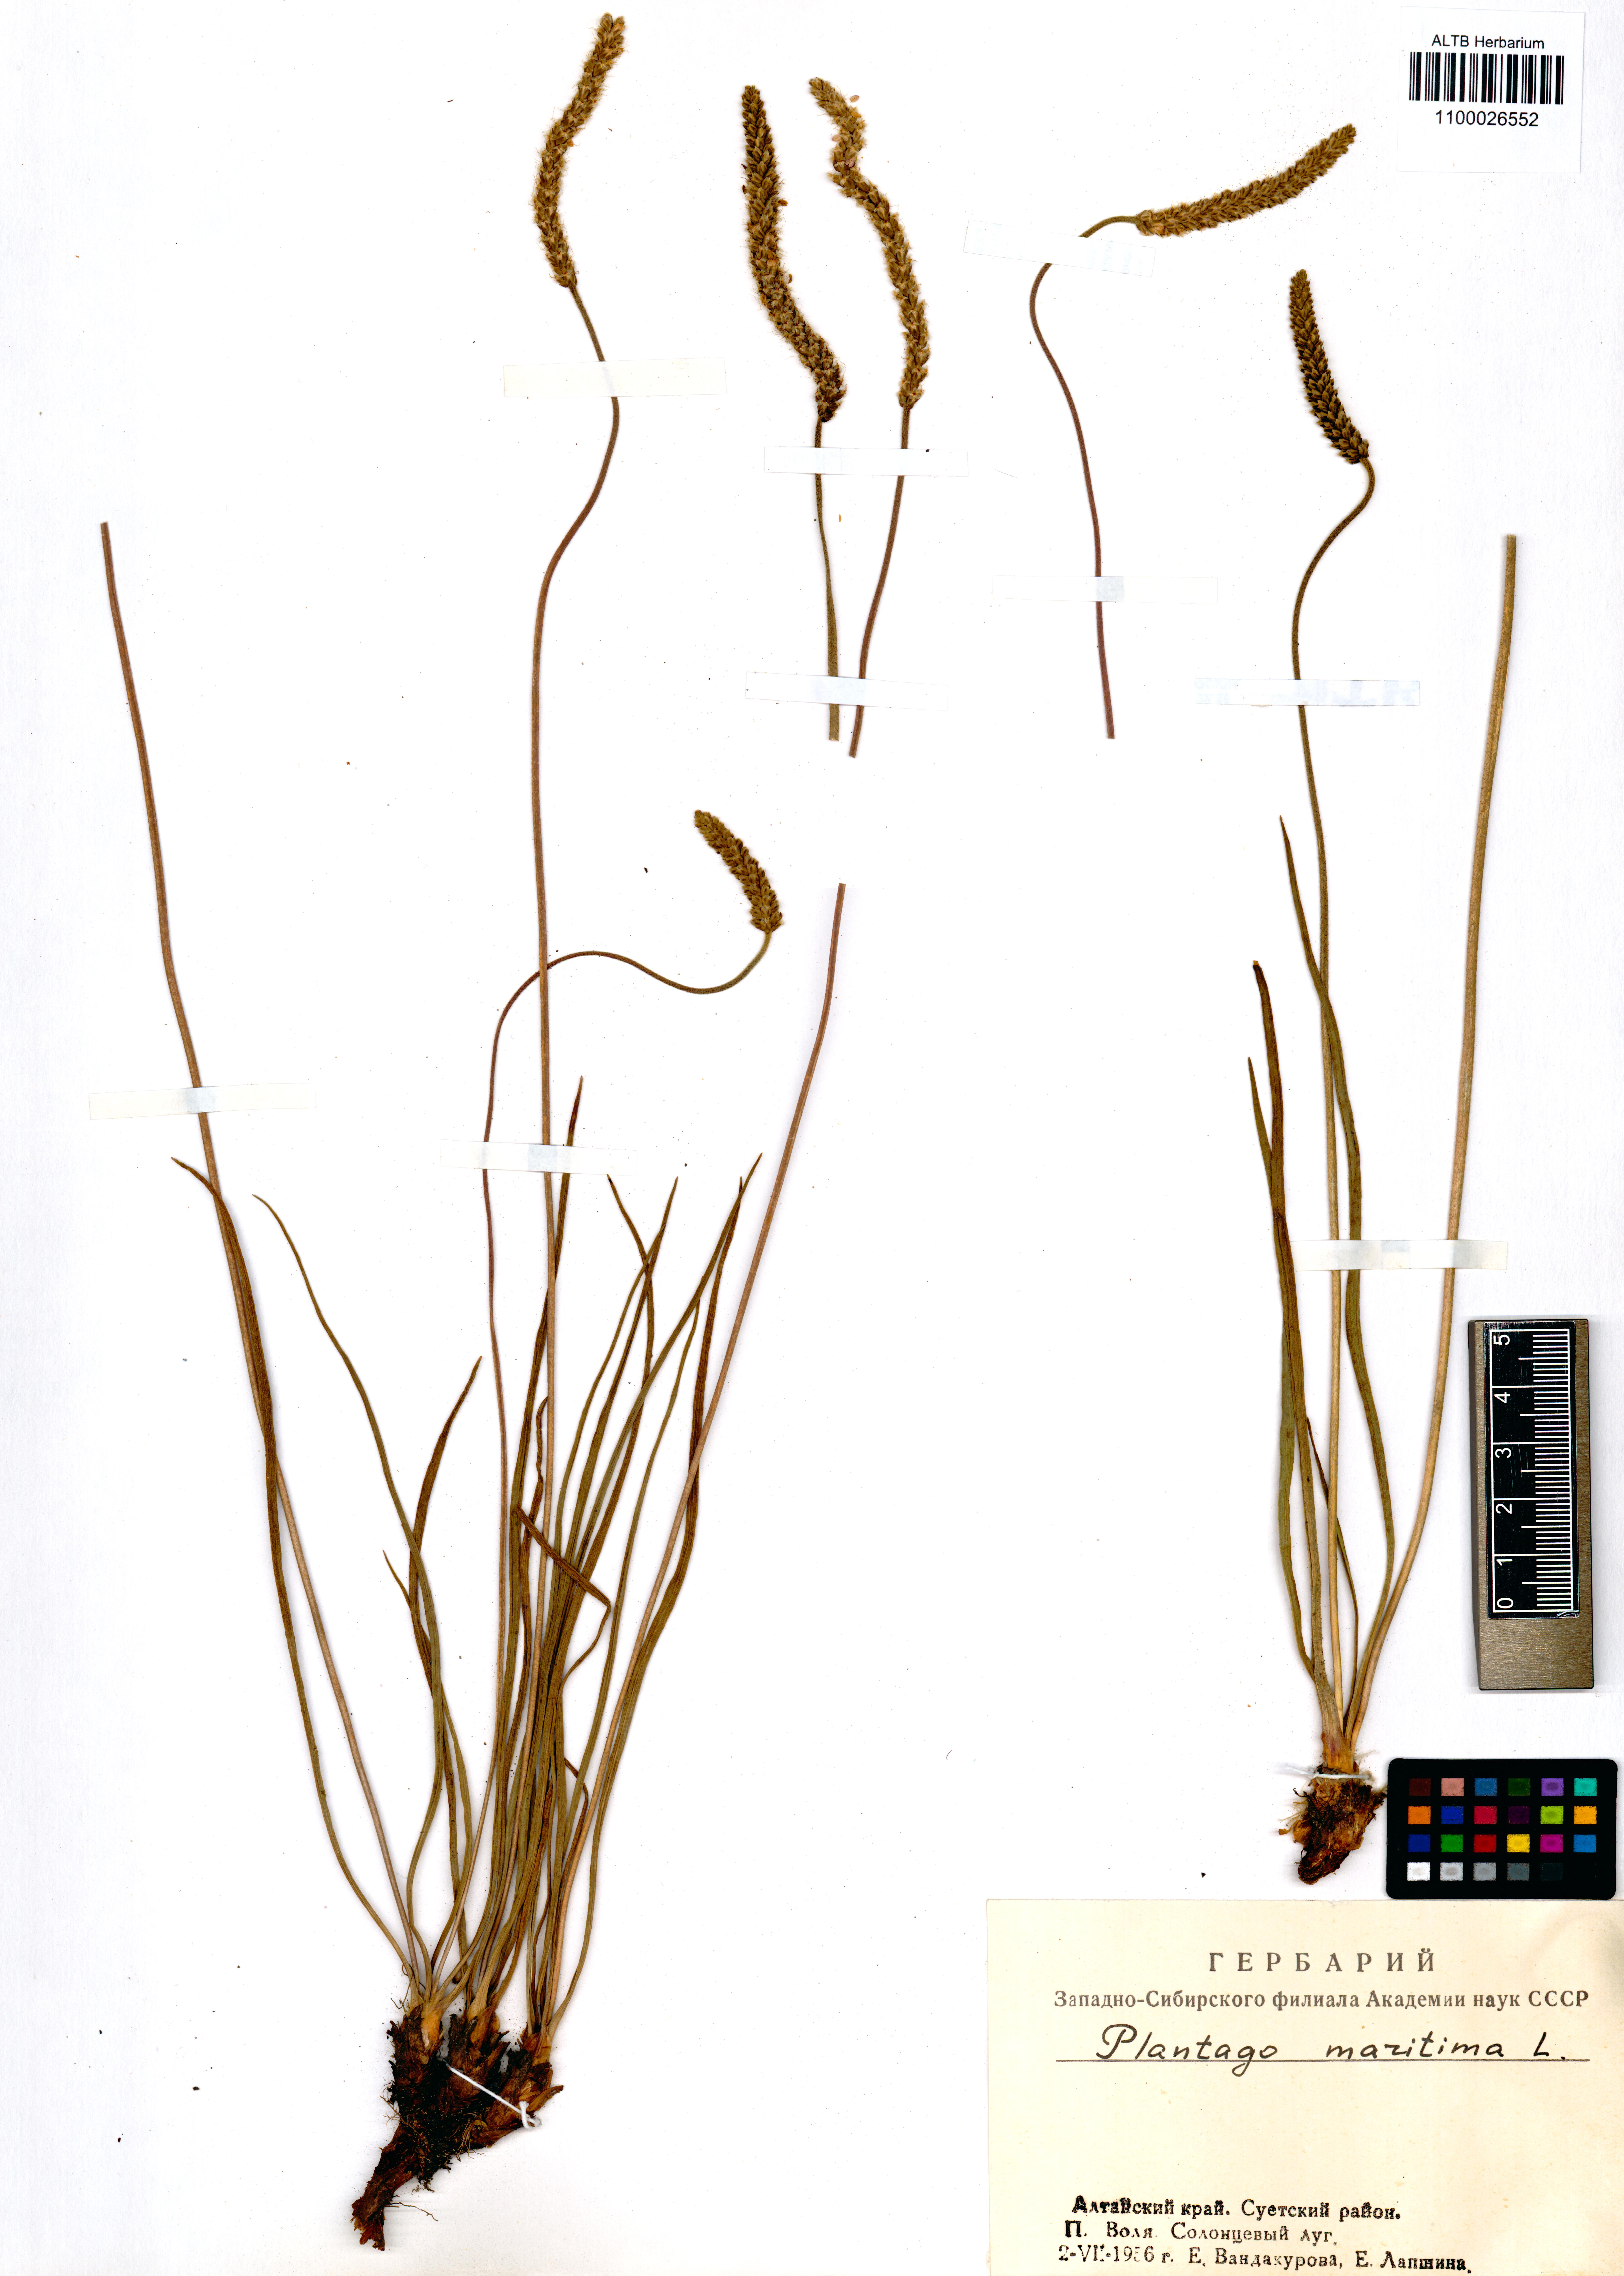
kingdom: Plantae
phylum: Tracheophyta
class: Magnoliopsida
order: Lamiales
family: Plantaginaceae
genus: Plantago
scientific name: Plantago maritima
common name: Sea plantain
